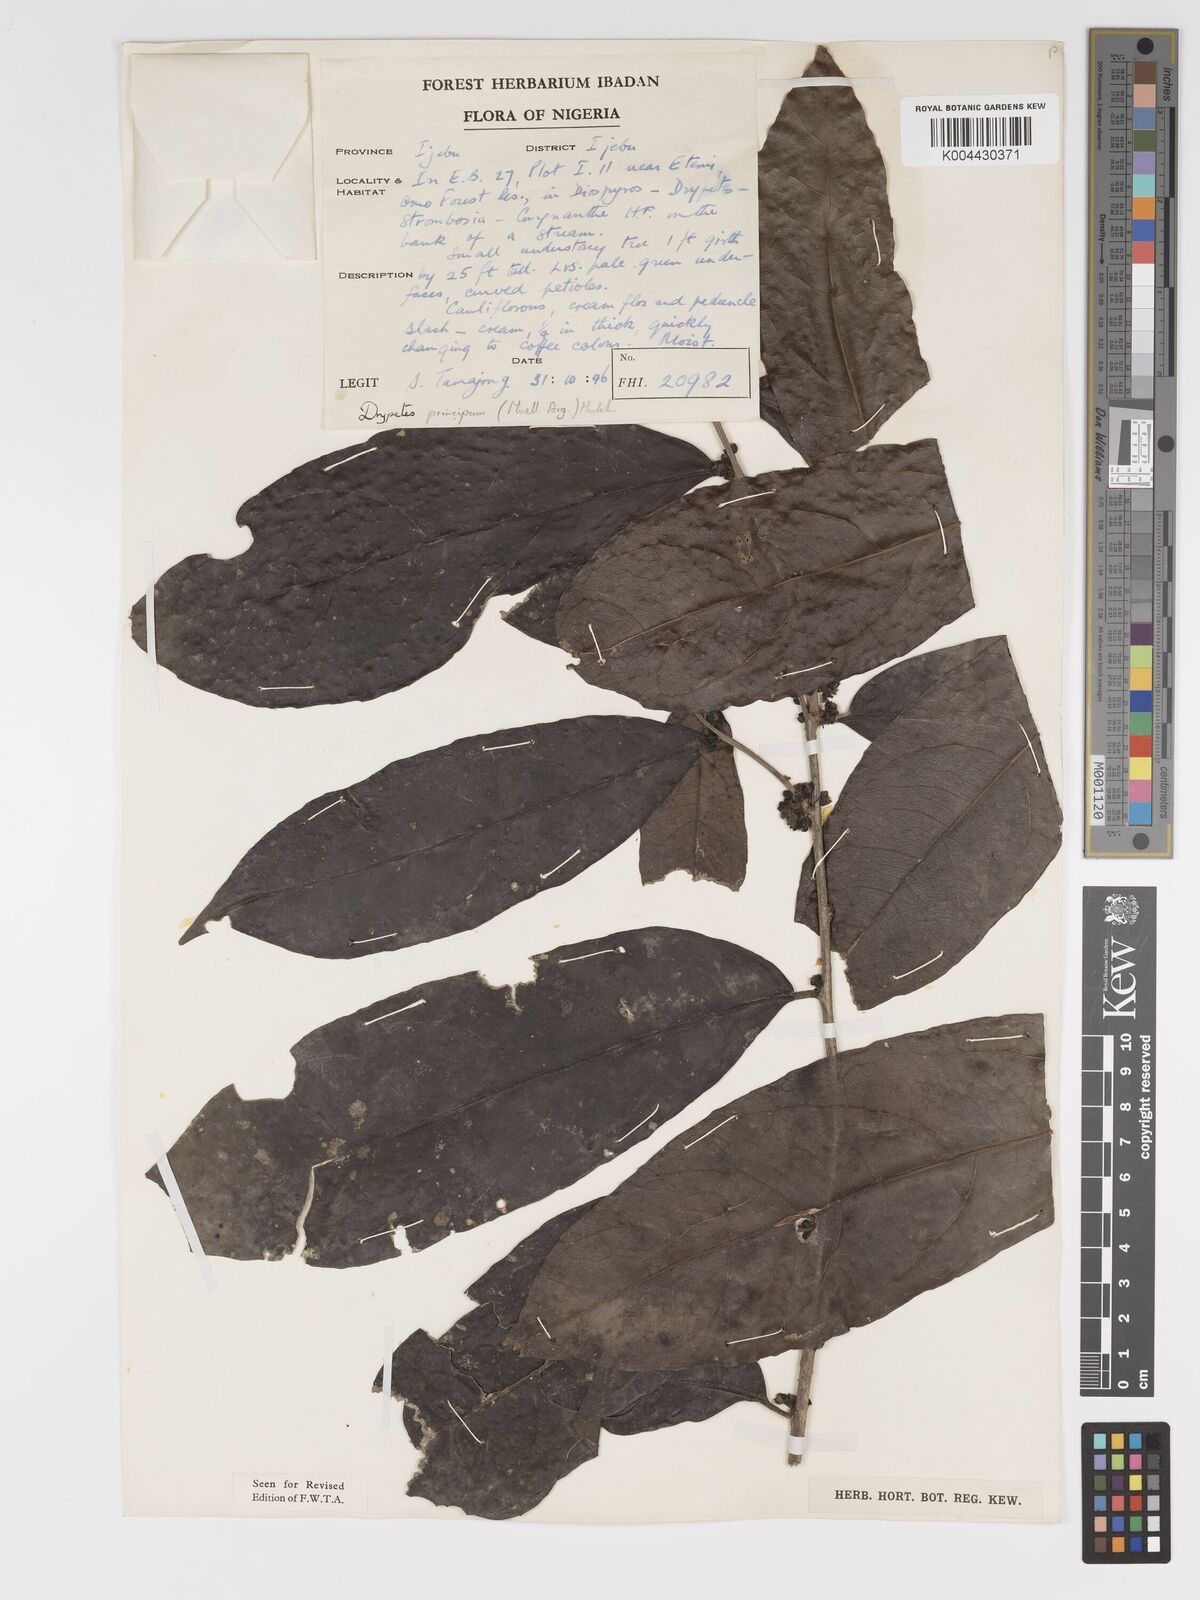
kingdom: Plantae
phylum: Tracheophyta
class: Magnoliopsida
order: Malpighiales
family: Putranjivaceae
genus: Drypetes
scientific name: Drypetes principum
